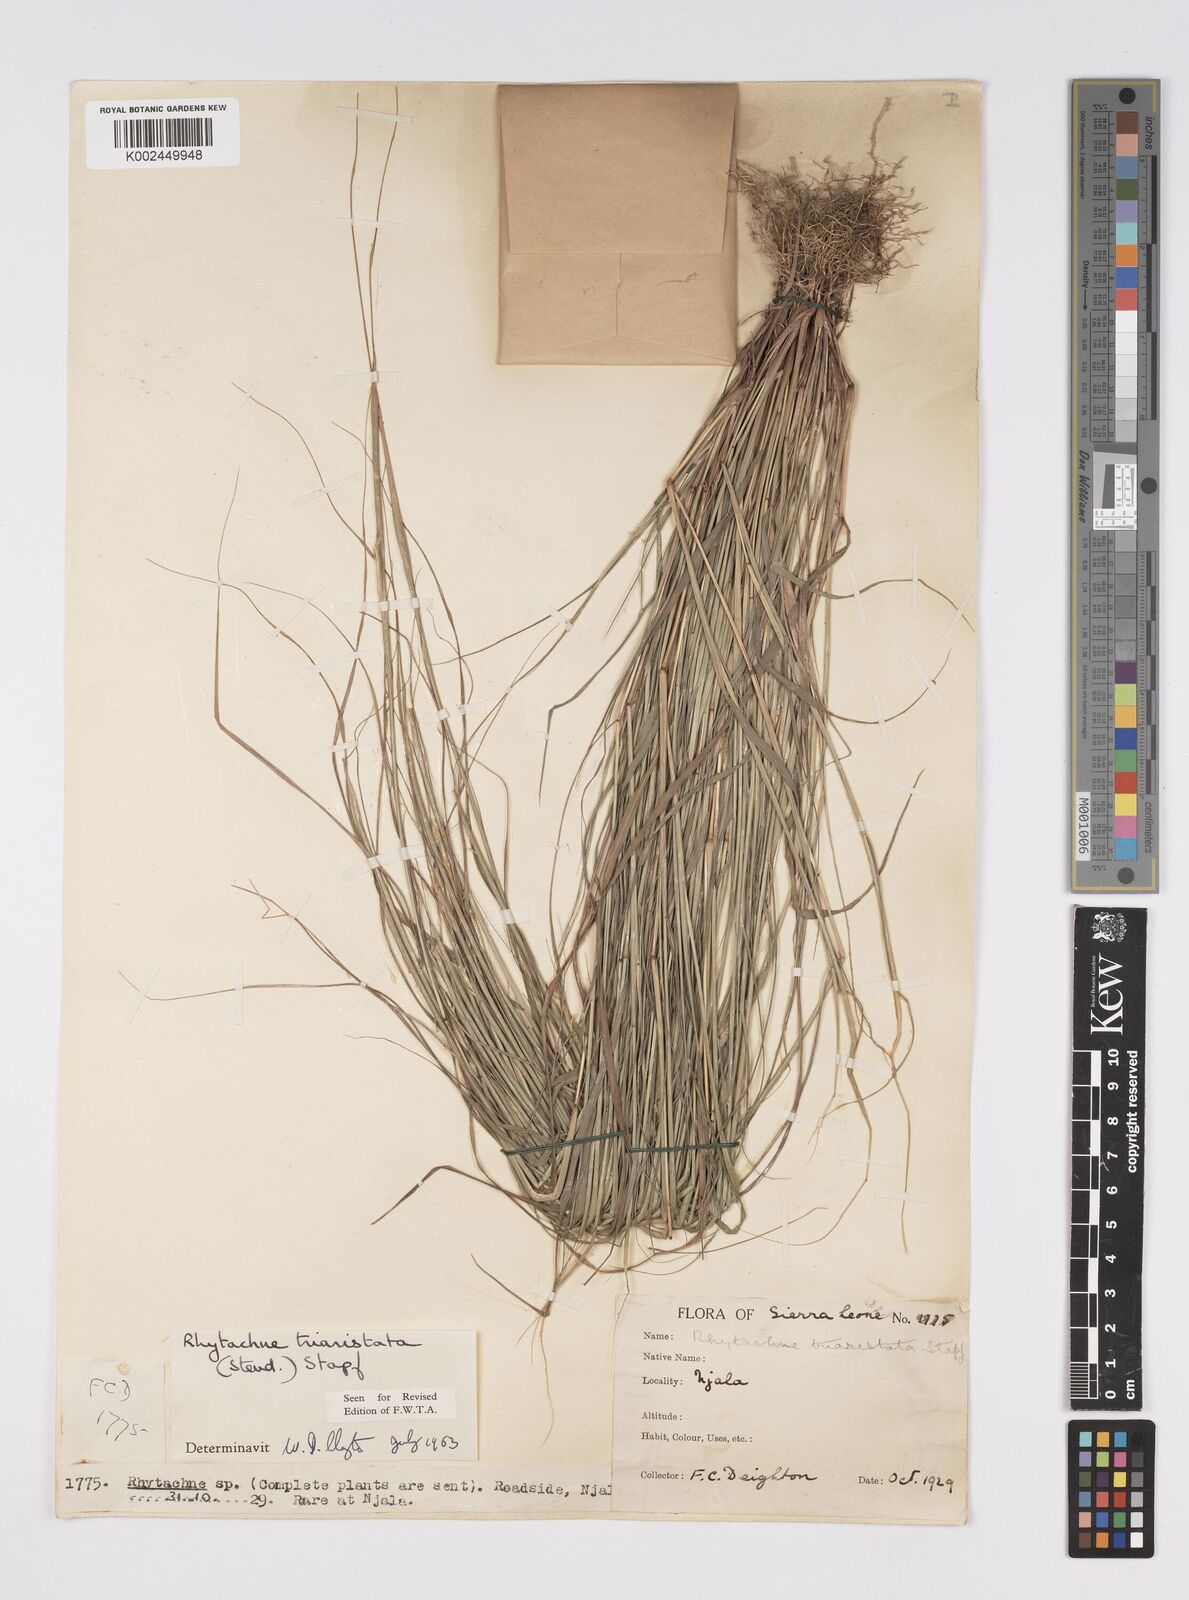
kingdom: Plantae
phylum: Tracheophyta
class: Liliopsida
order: Poales
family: Poaceae
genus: Rhytachne
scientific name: Rhytachne triaristata
